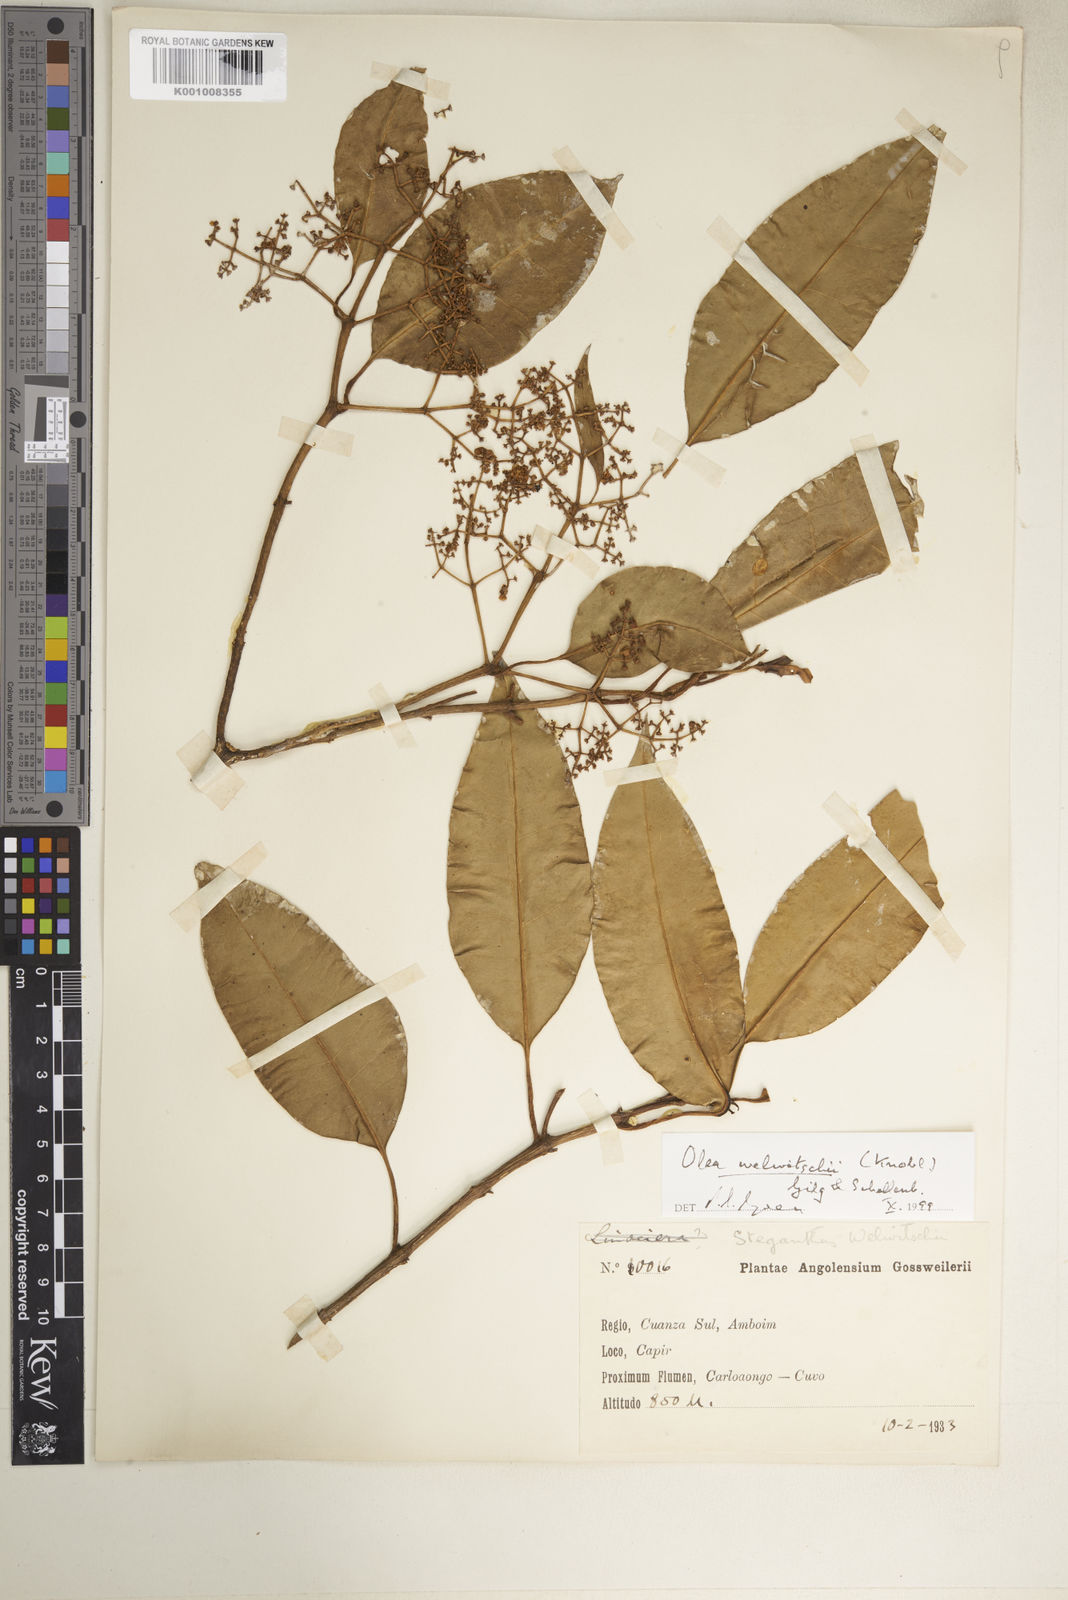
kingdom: Plantae
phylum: Tracheophyta
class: Magnoliopsida
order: Lamiales
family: Oleaceae
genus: Olea
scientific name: Olea welwitschii
